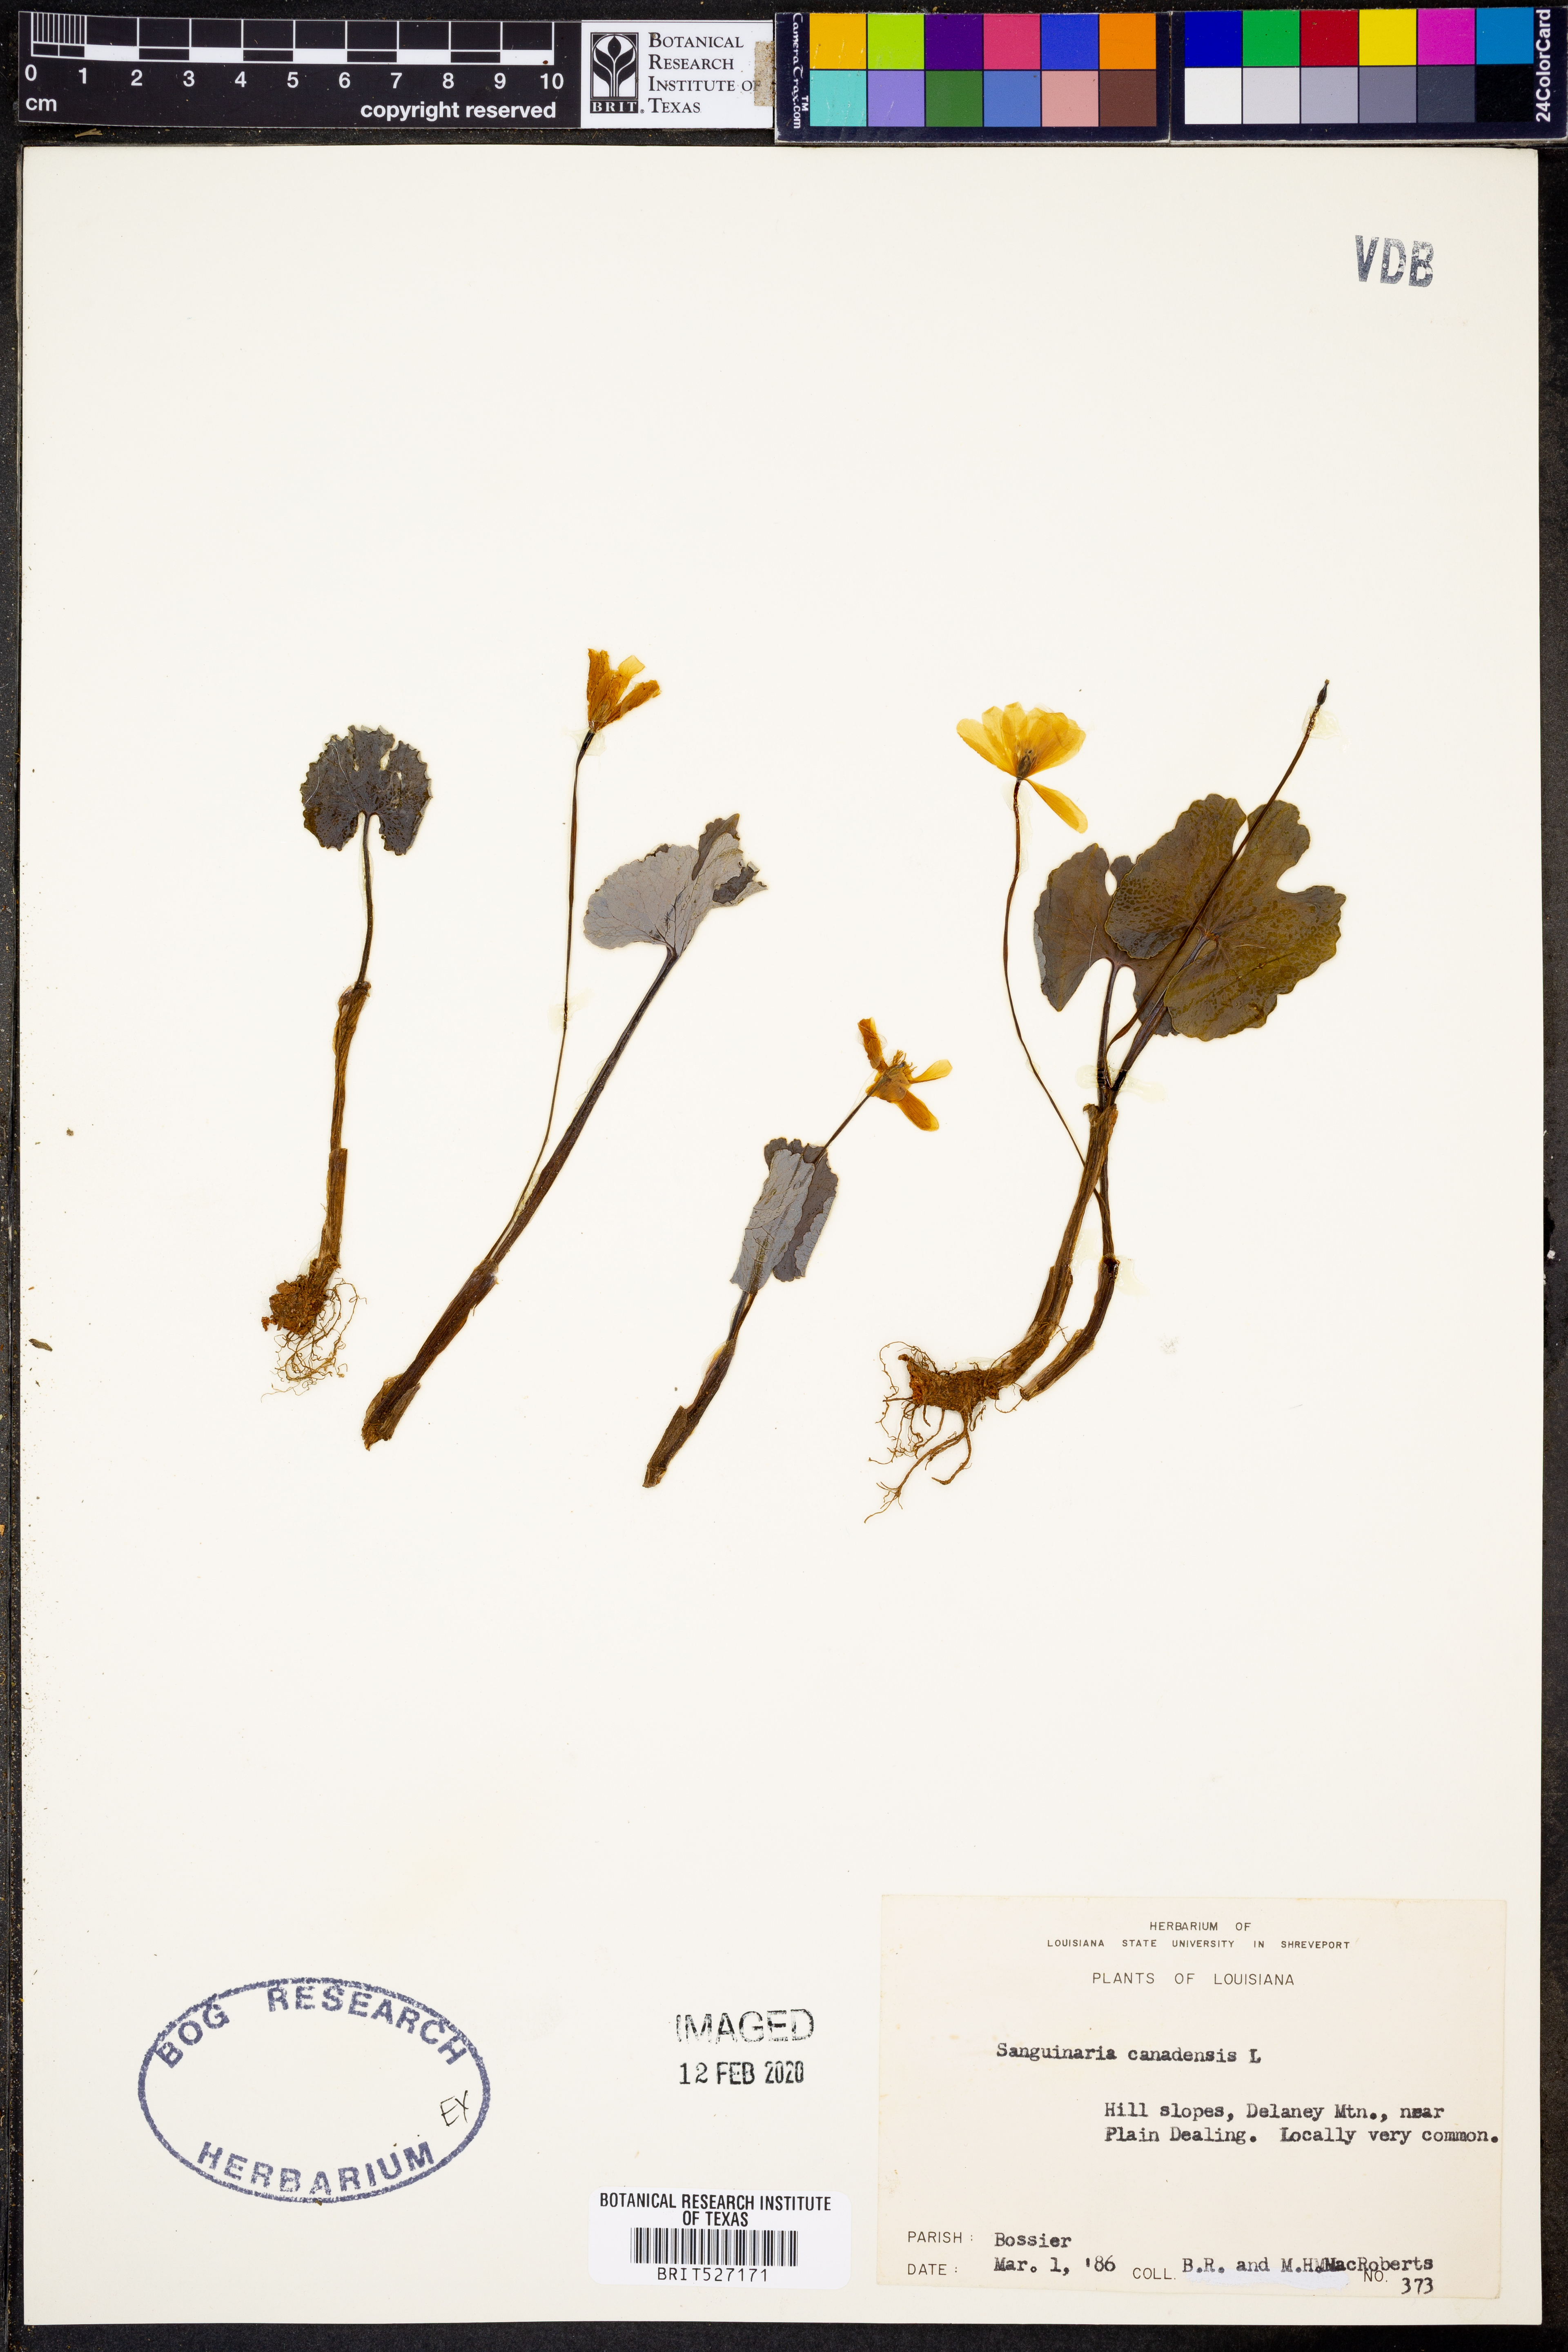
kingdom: Plantae
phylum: Tracheophyta
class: Magnoliopsida
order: Ranunculales
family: Papaveraceae
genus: Sanguinaria
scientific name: Sanguinaria canadensis
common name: Bloodroot
